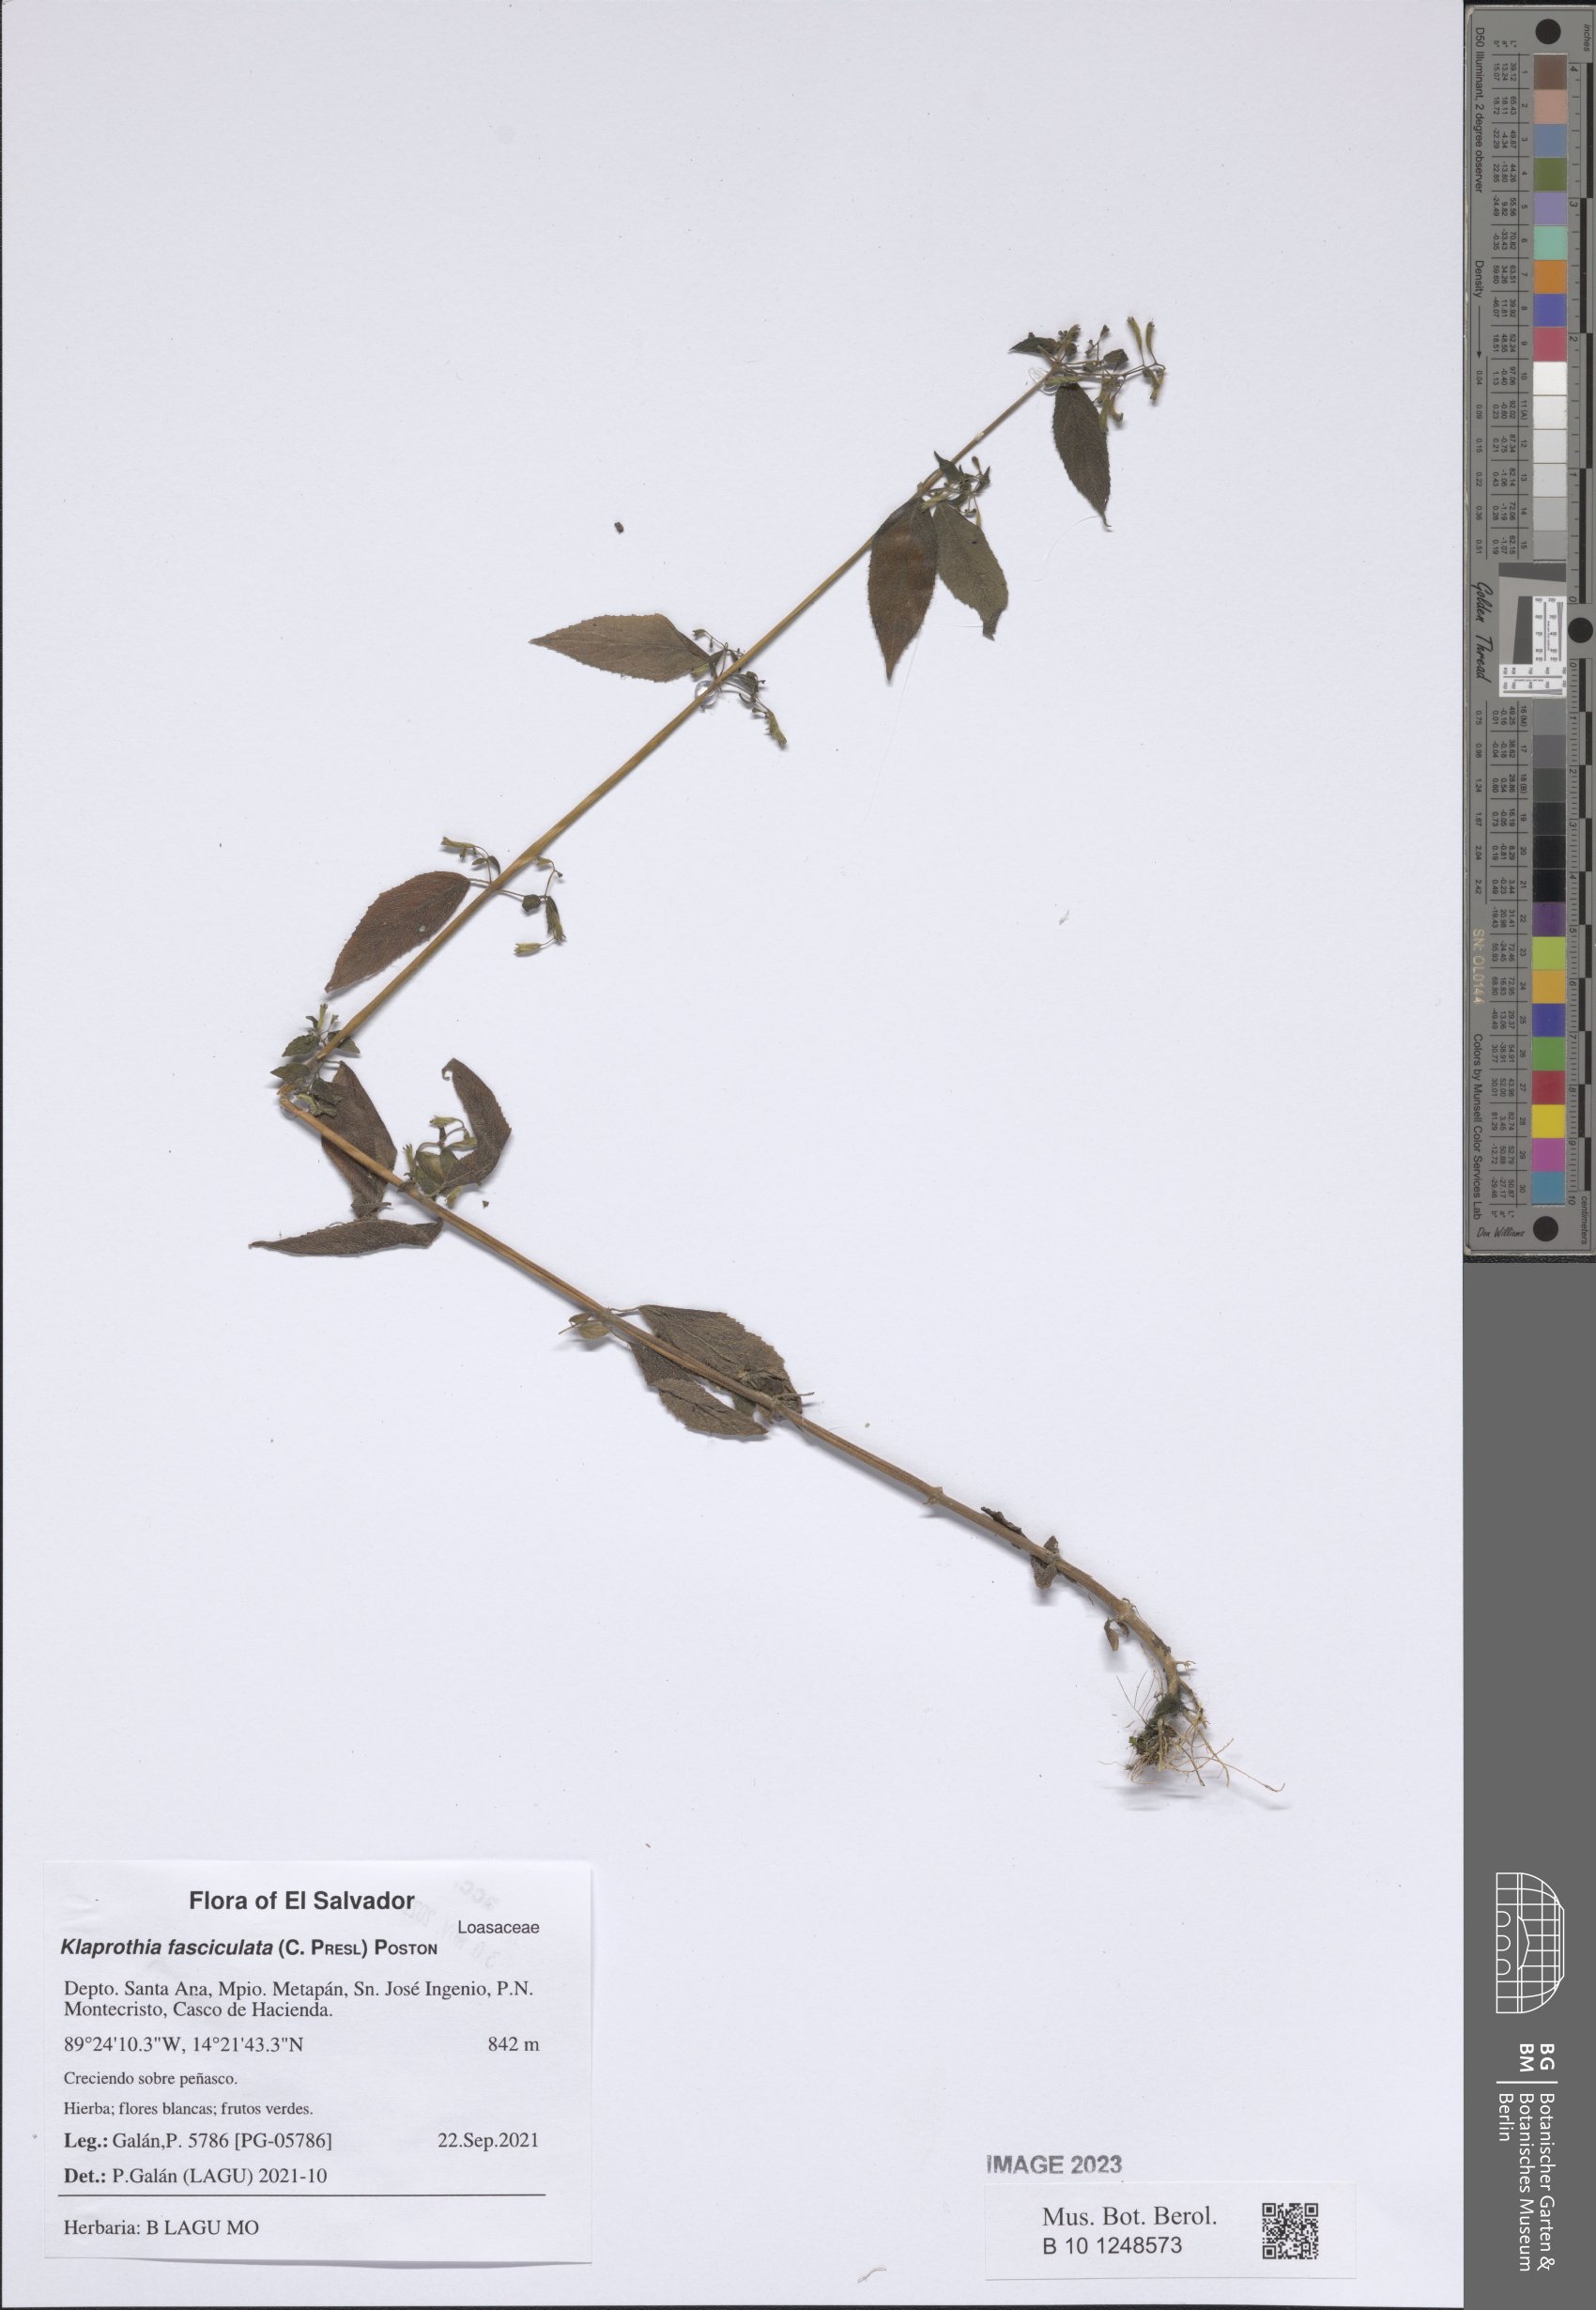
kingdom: Plantae
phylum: Tracheophyta
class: Magnoliopsida
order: Cornales
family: Loasaceae
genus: Klaprothia
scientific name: Klaprothia fasciculata
